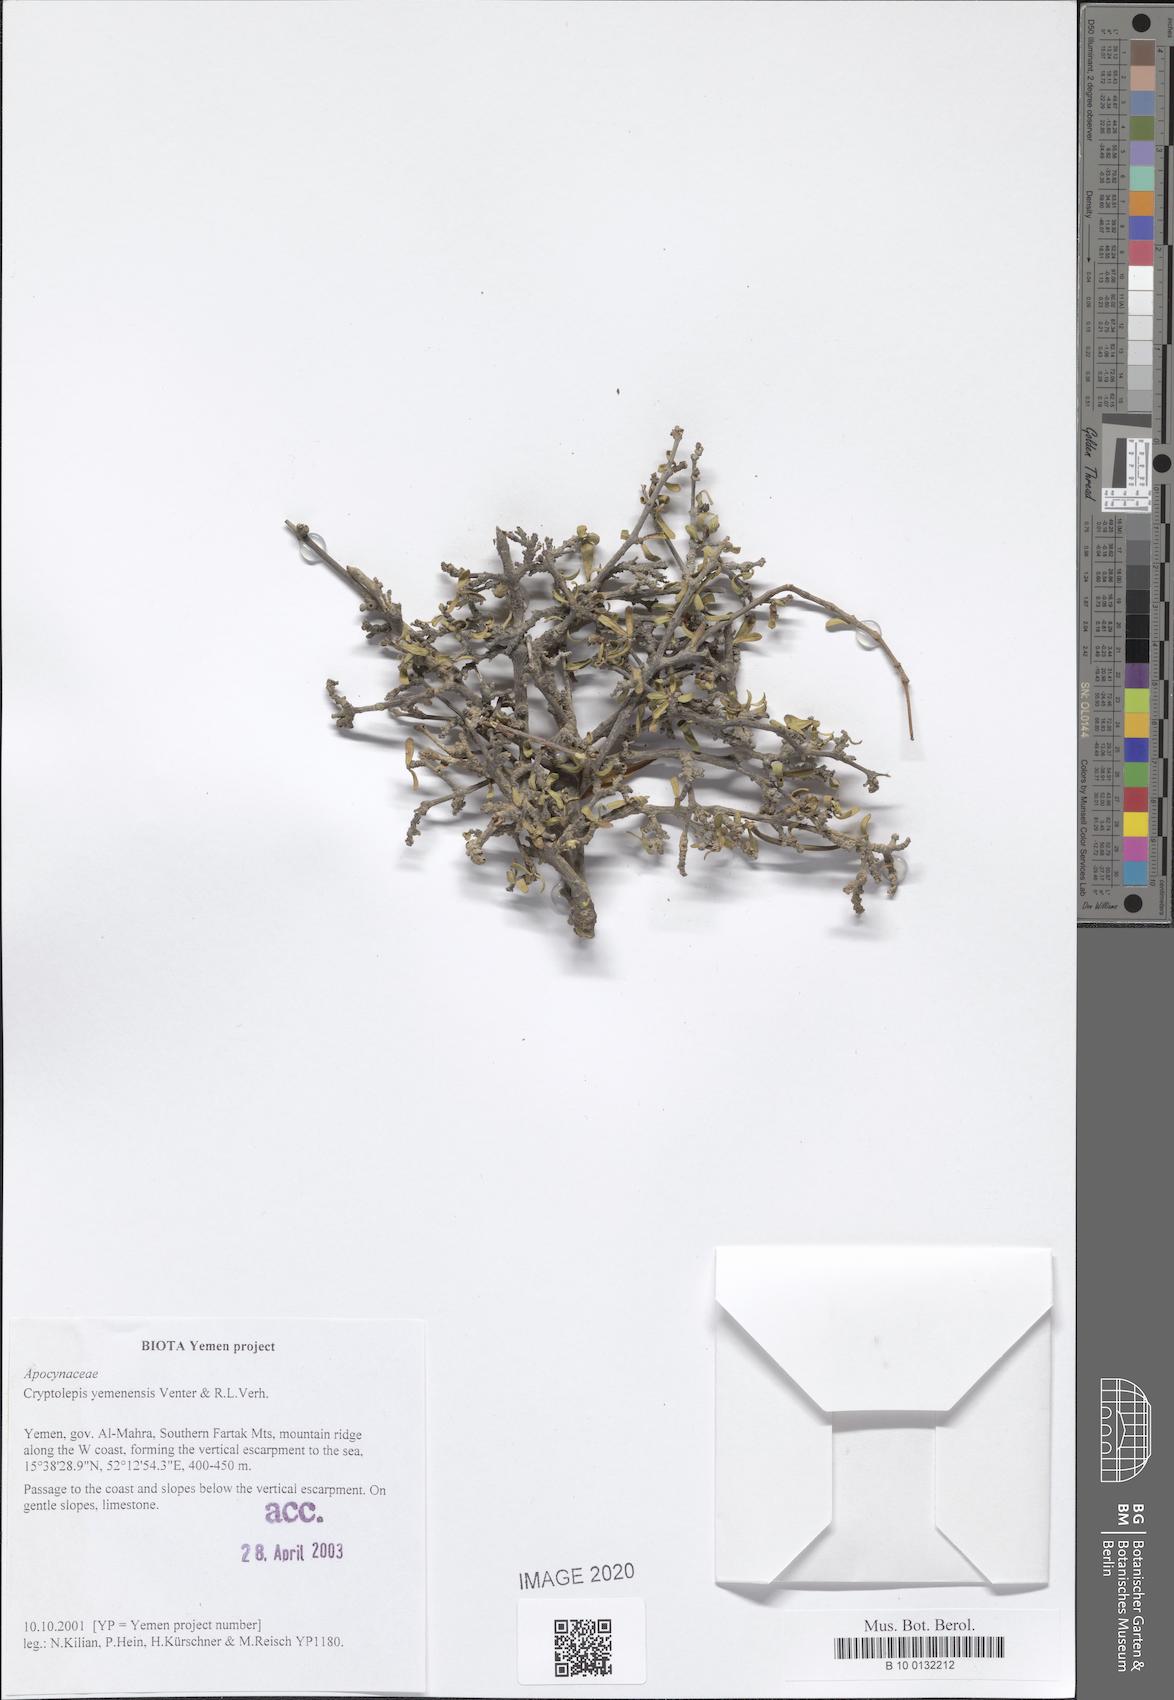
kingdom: Plantae
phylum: Tracheophyta
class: Magnoliopsida
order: Gentianales
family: Apocynaceae
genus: Cryptolepis
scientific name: Cryptolepis yemenensis
